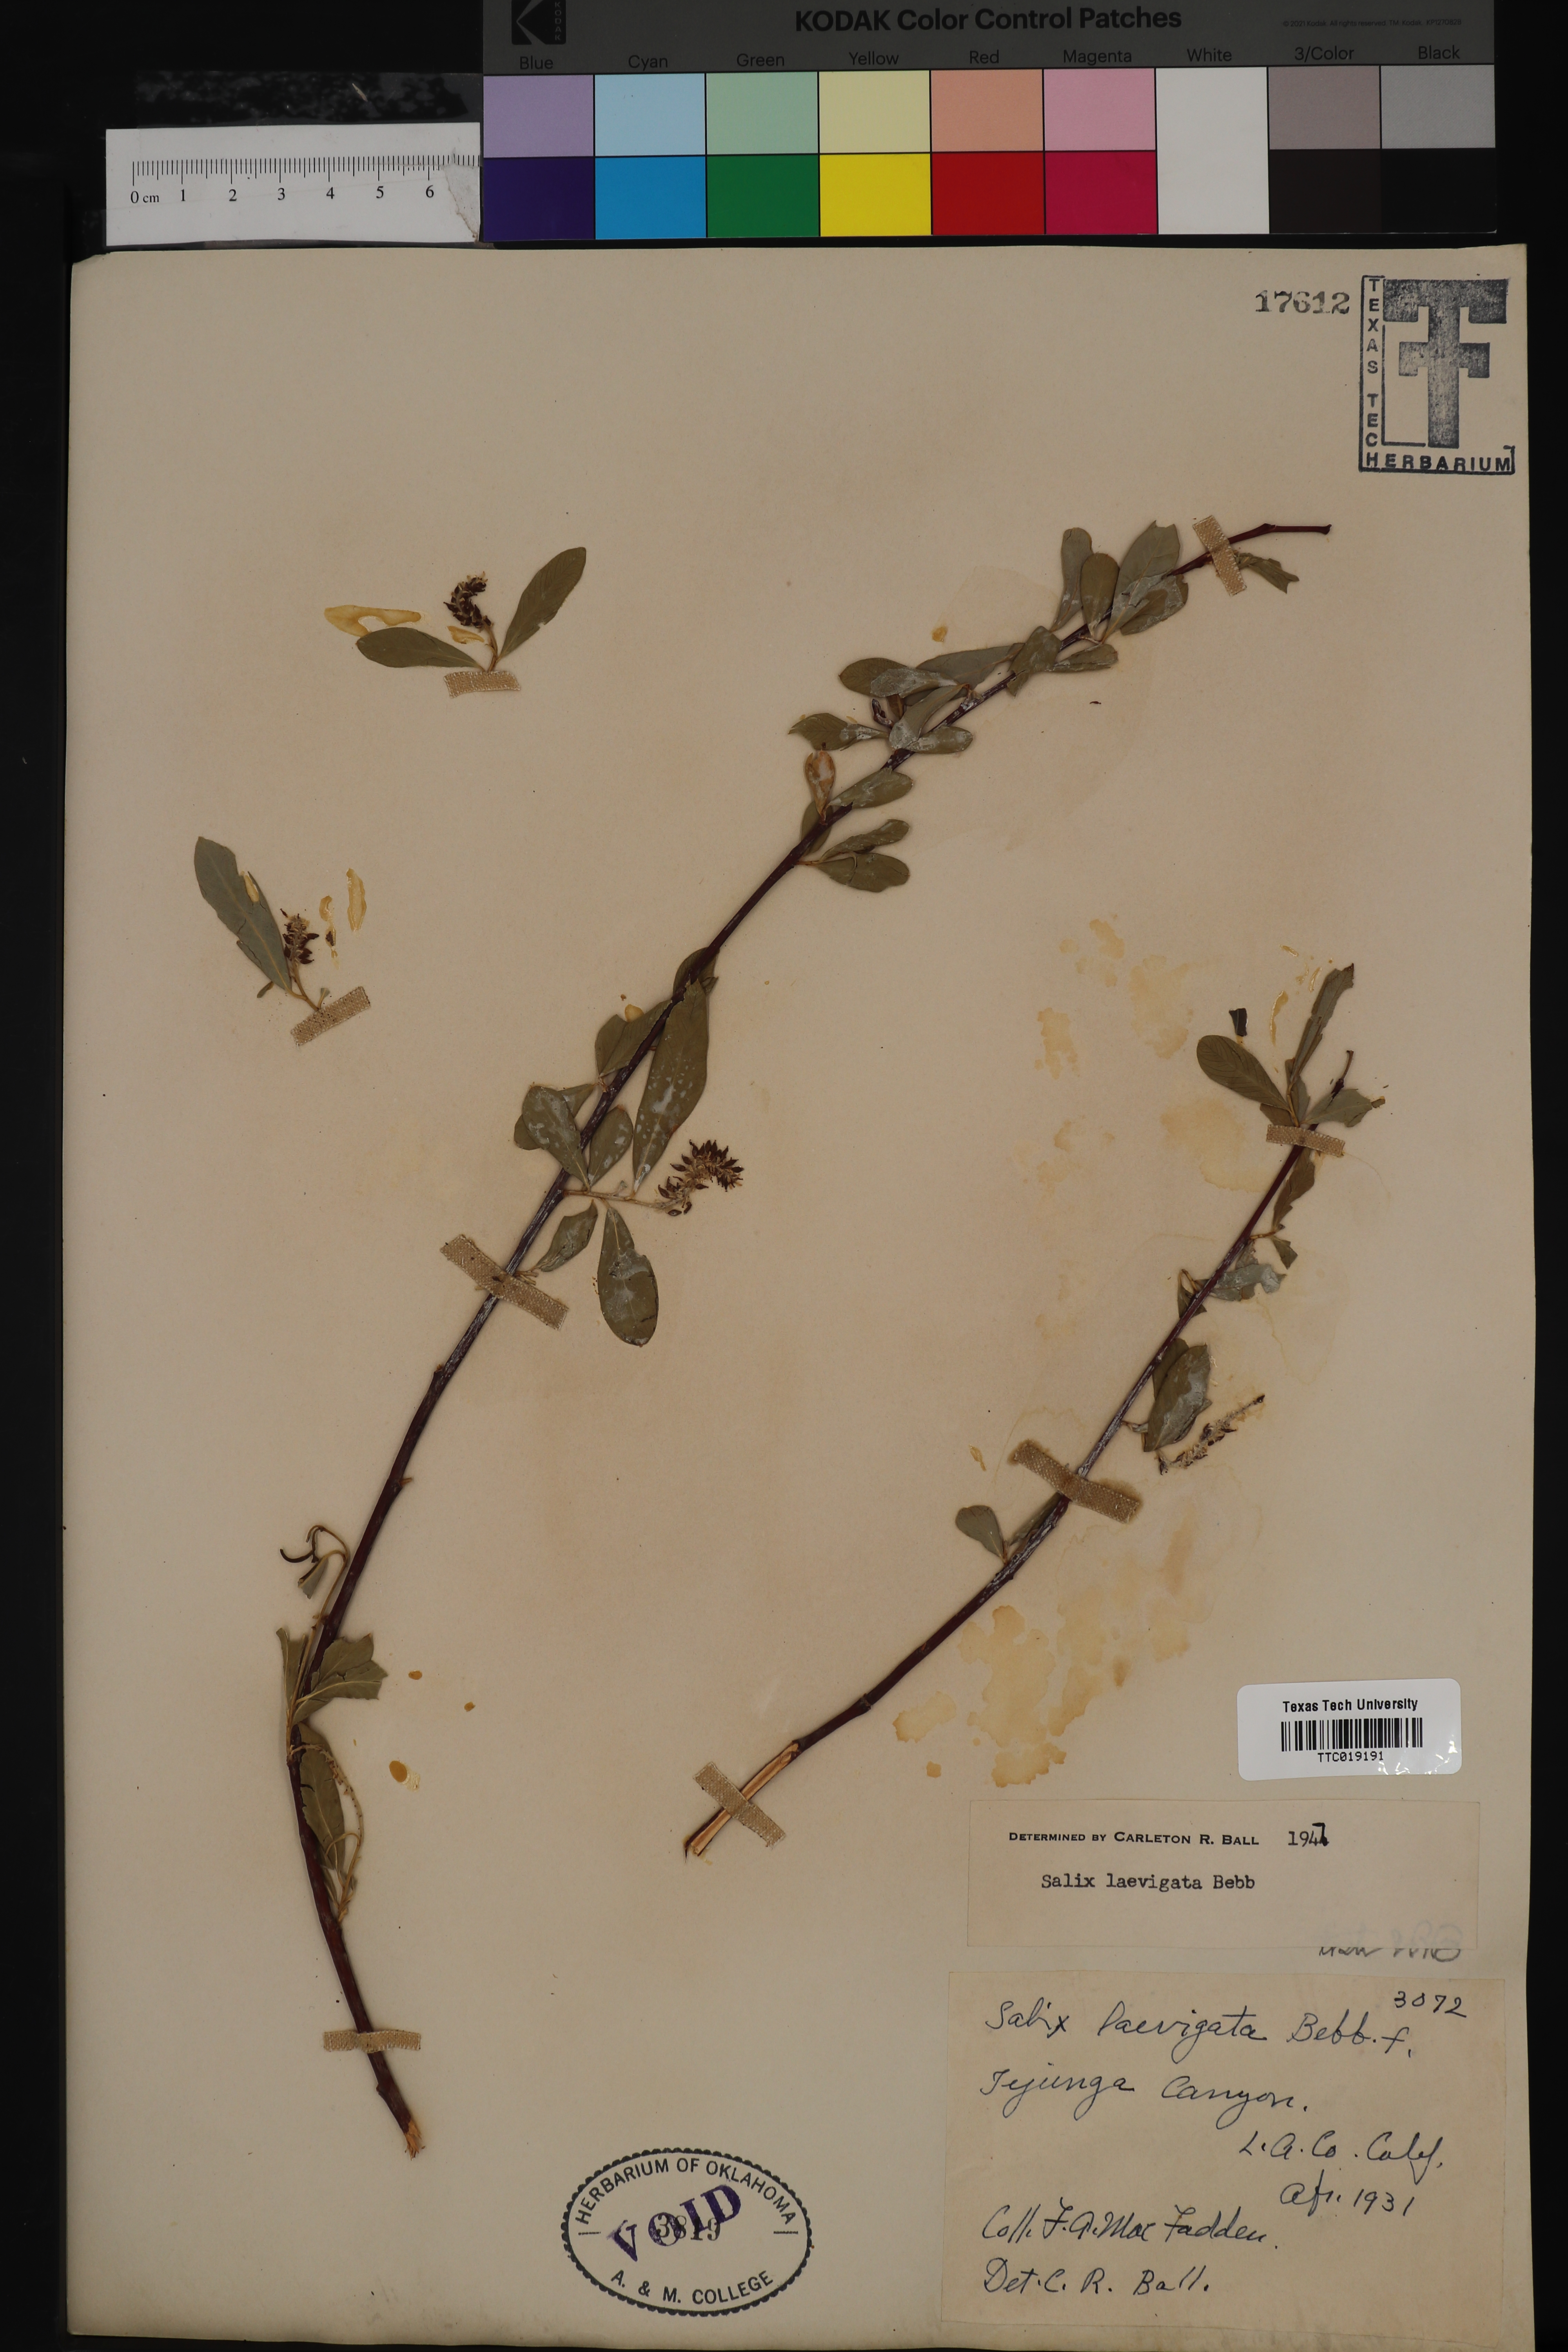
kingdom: Plantae
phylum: Tracheophyta
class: Magnoliopsida
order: Malpighiales
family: Salicaceae
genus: Salix
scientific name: Salix laevigata
